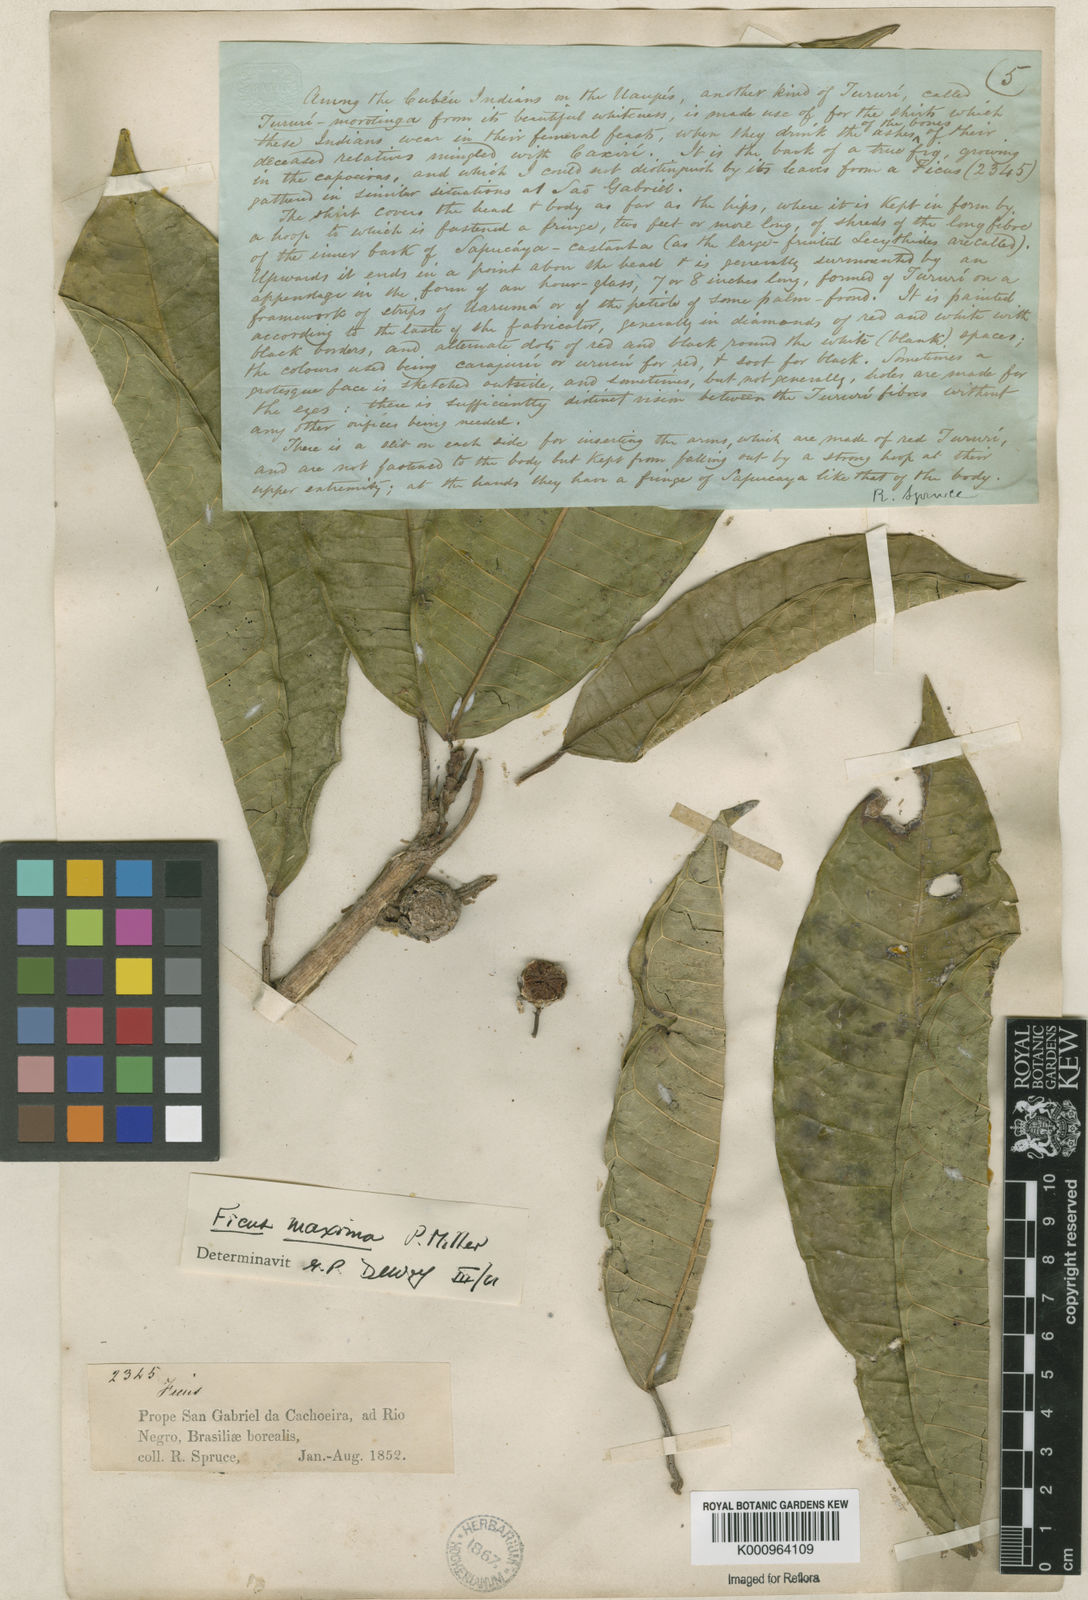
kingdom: Plantae
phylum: Tracheophyta
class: Magnoliopsida
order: Rosales
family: Moraceae
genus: Ficus
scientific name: Ficus maxima
